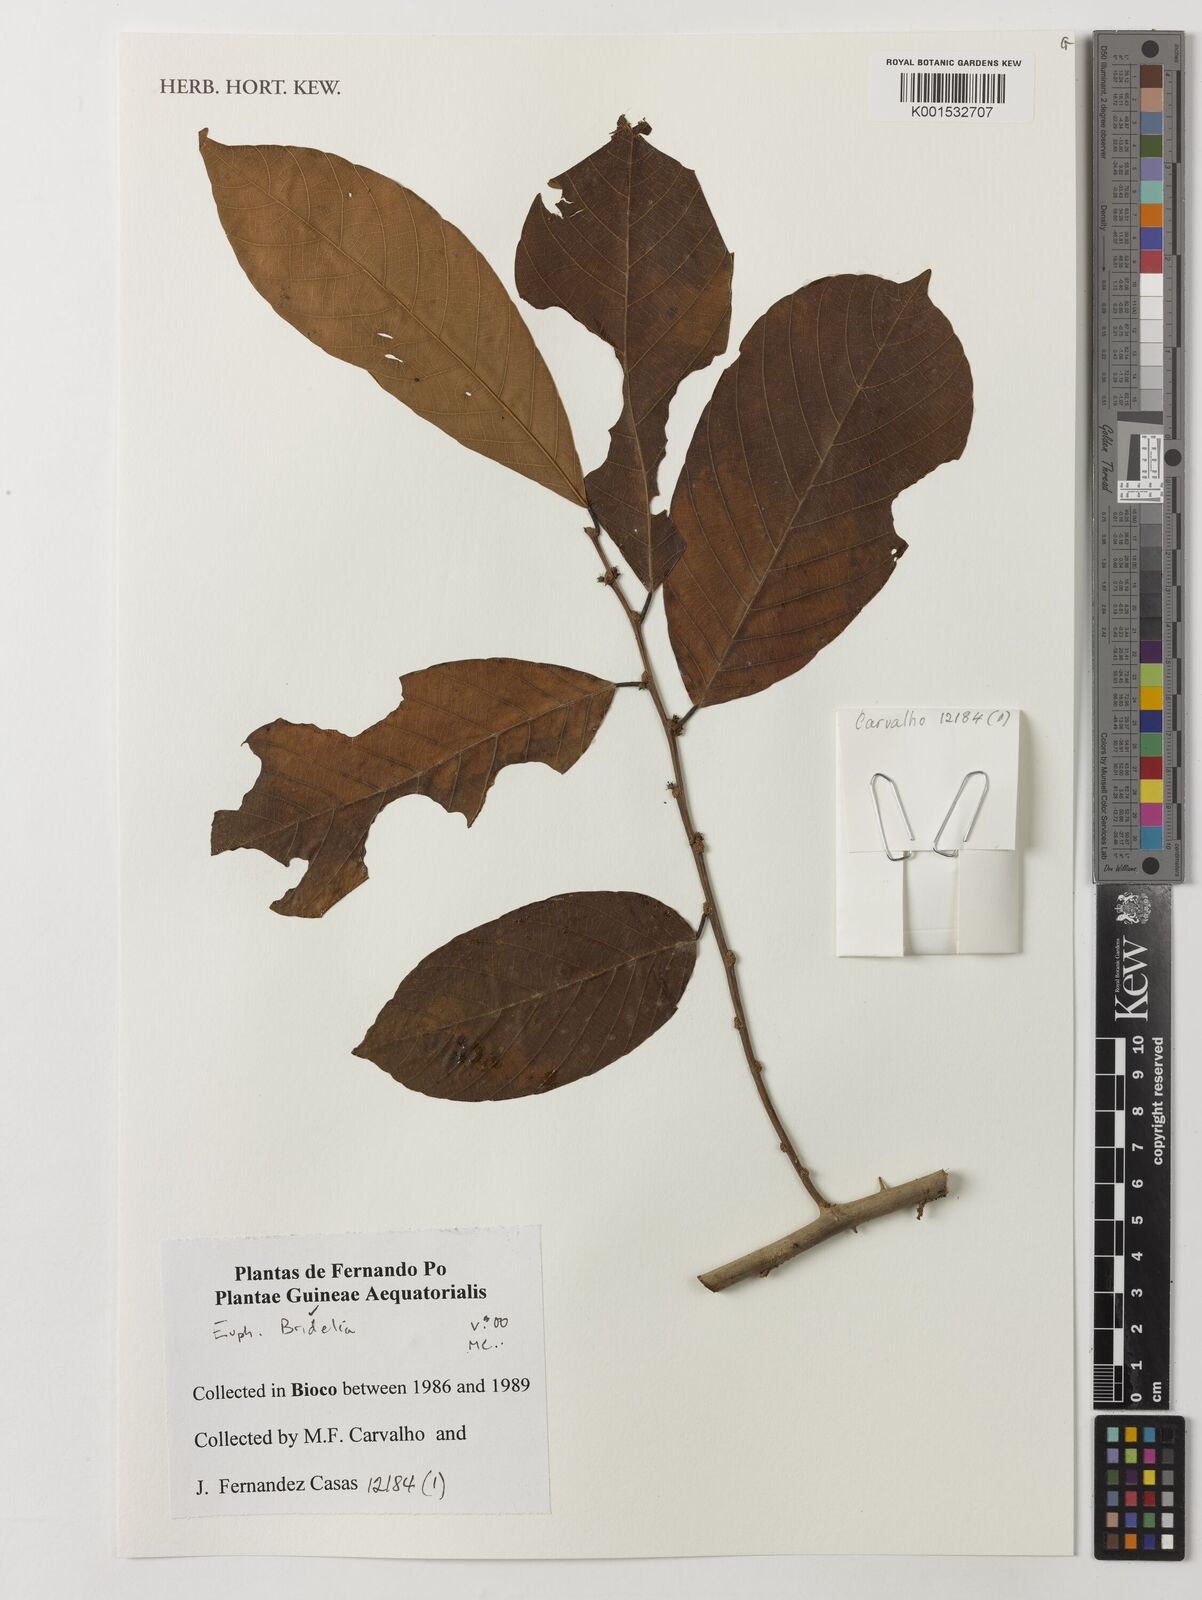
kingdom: Plantae
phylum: Tracheophyta
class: Magnoliopsida
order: Malpighiales
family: Phyllanthaceae
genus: Bridelia
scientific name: Bridelia
